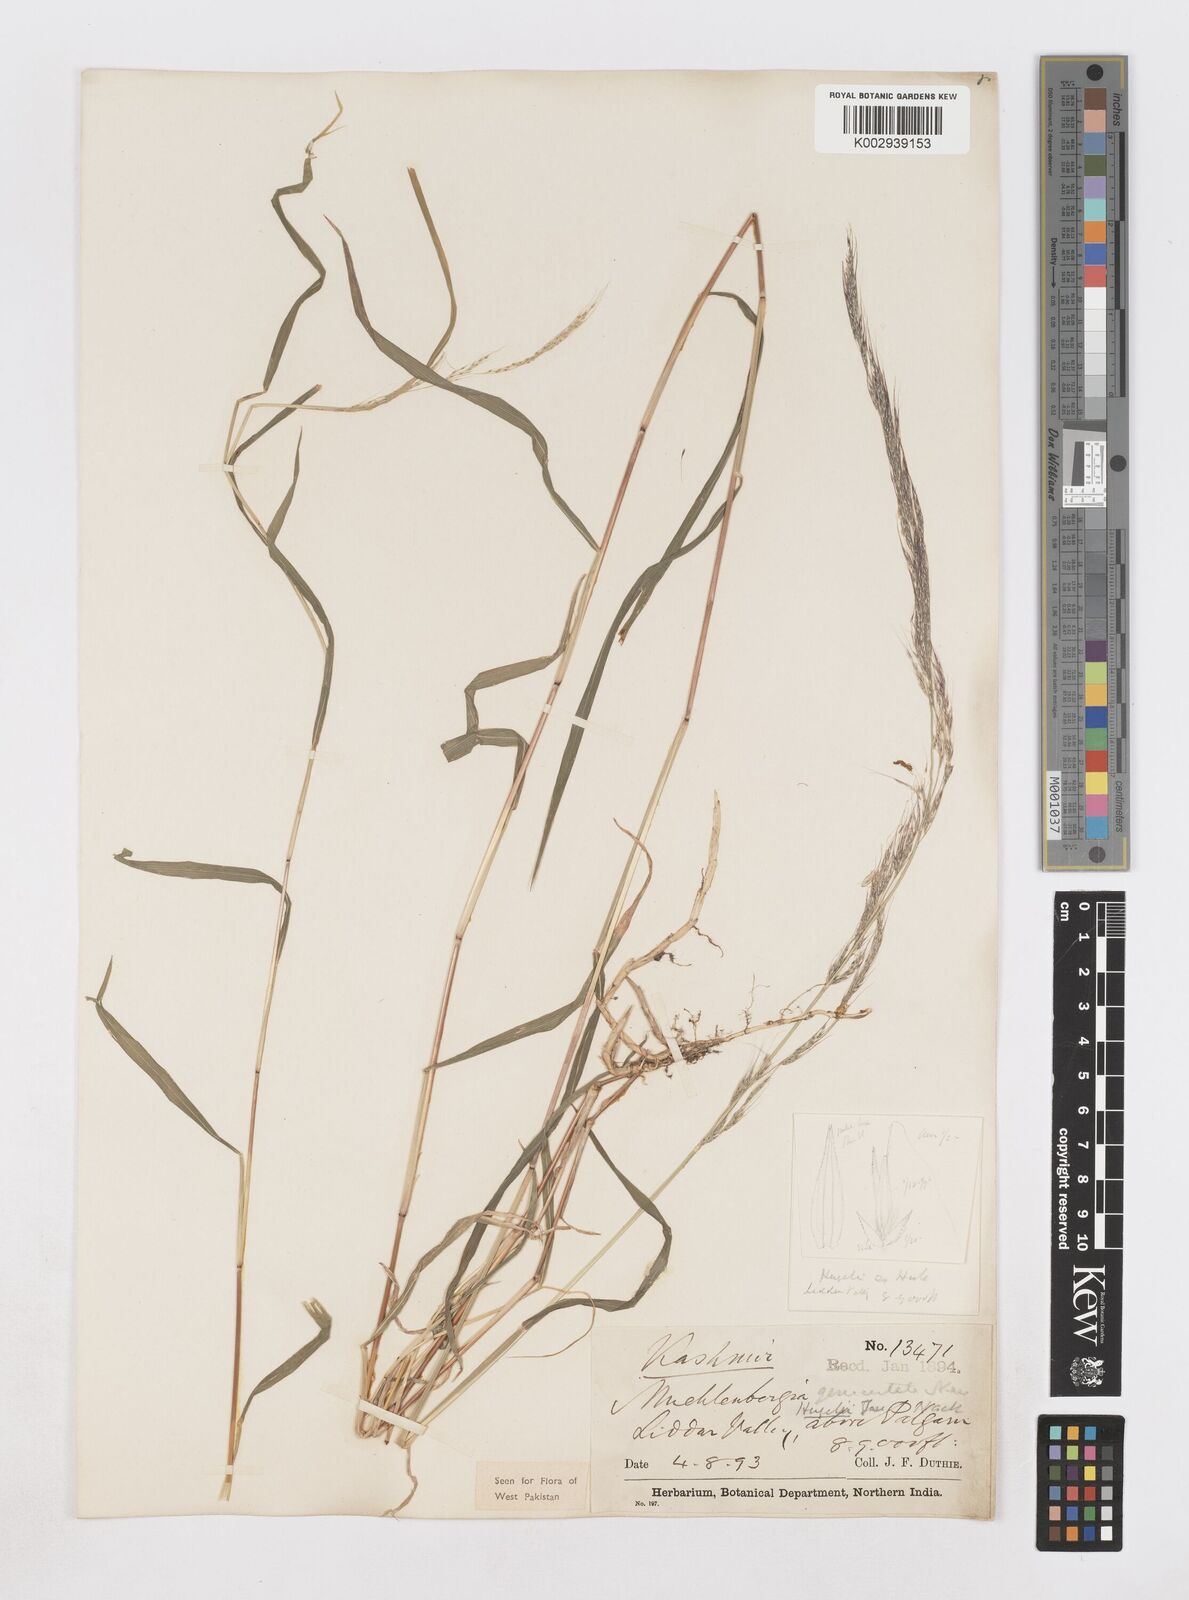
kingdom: Plantae
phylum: Tracheophyta
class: Liliopsida
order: Poales
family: Poaceae
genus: Muhlenbergia
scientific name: Muhlenbergia huegelii
